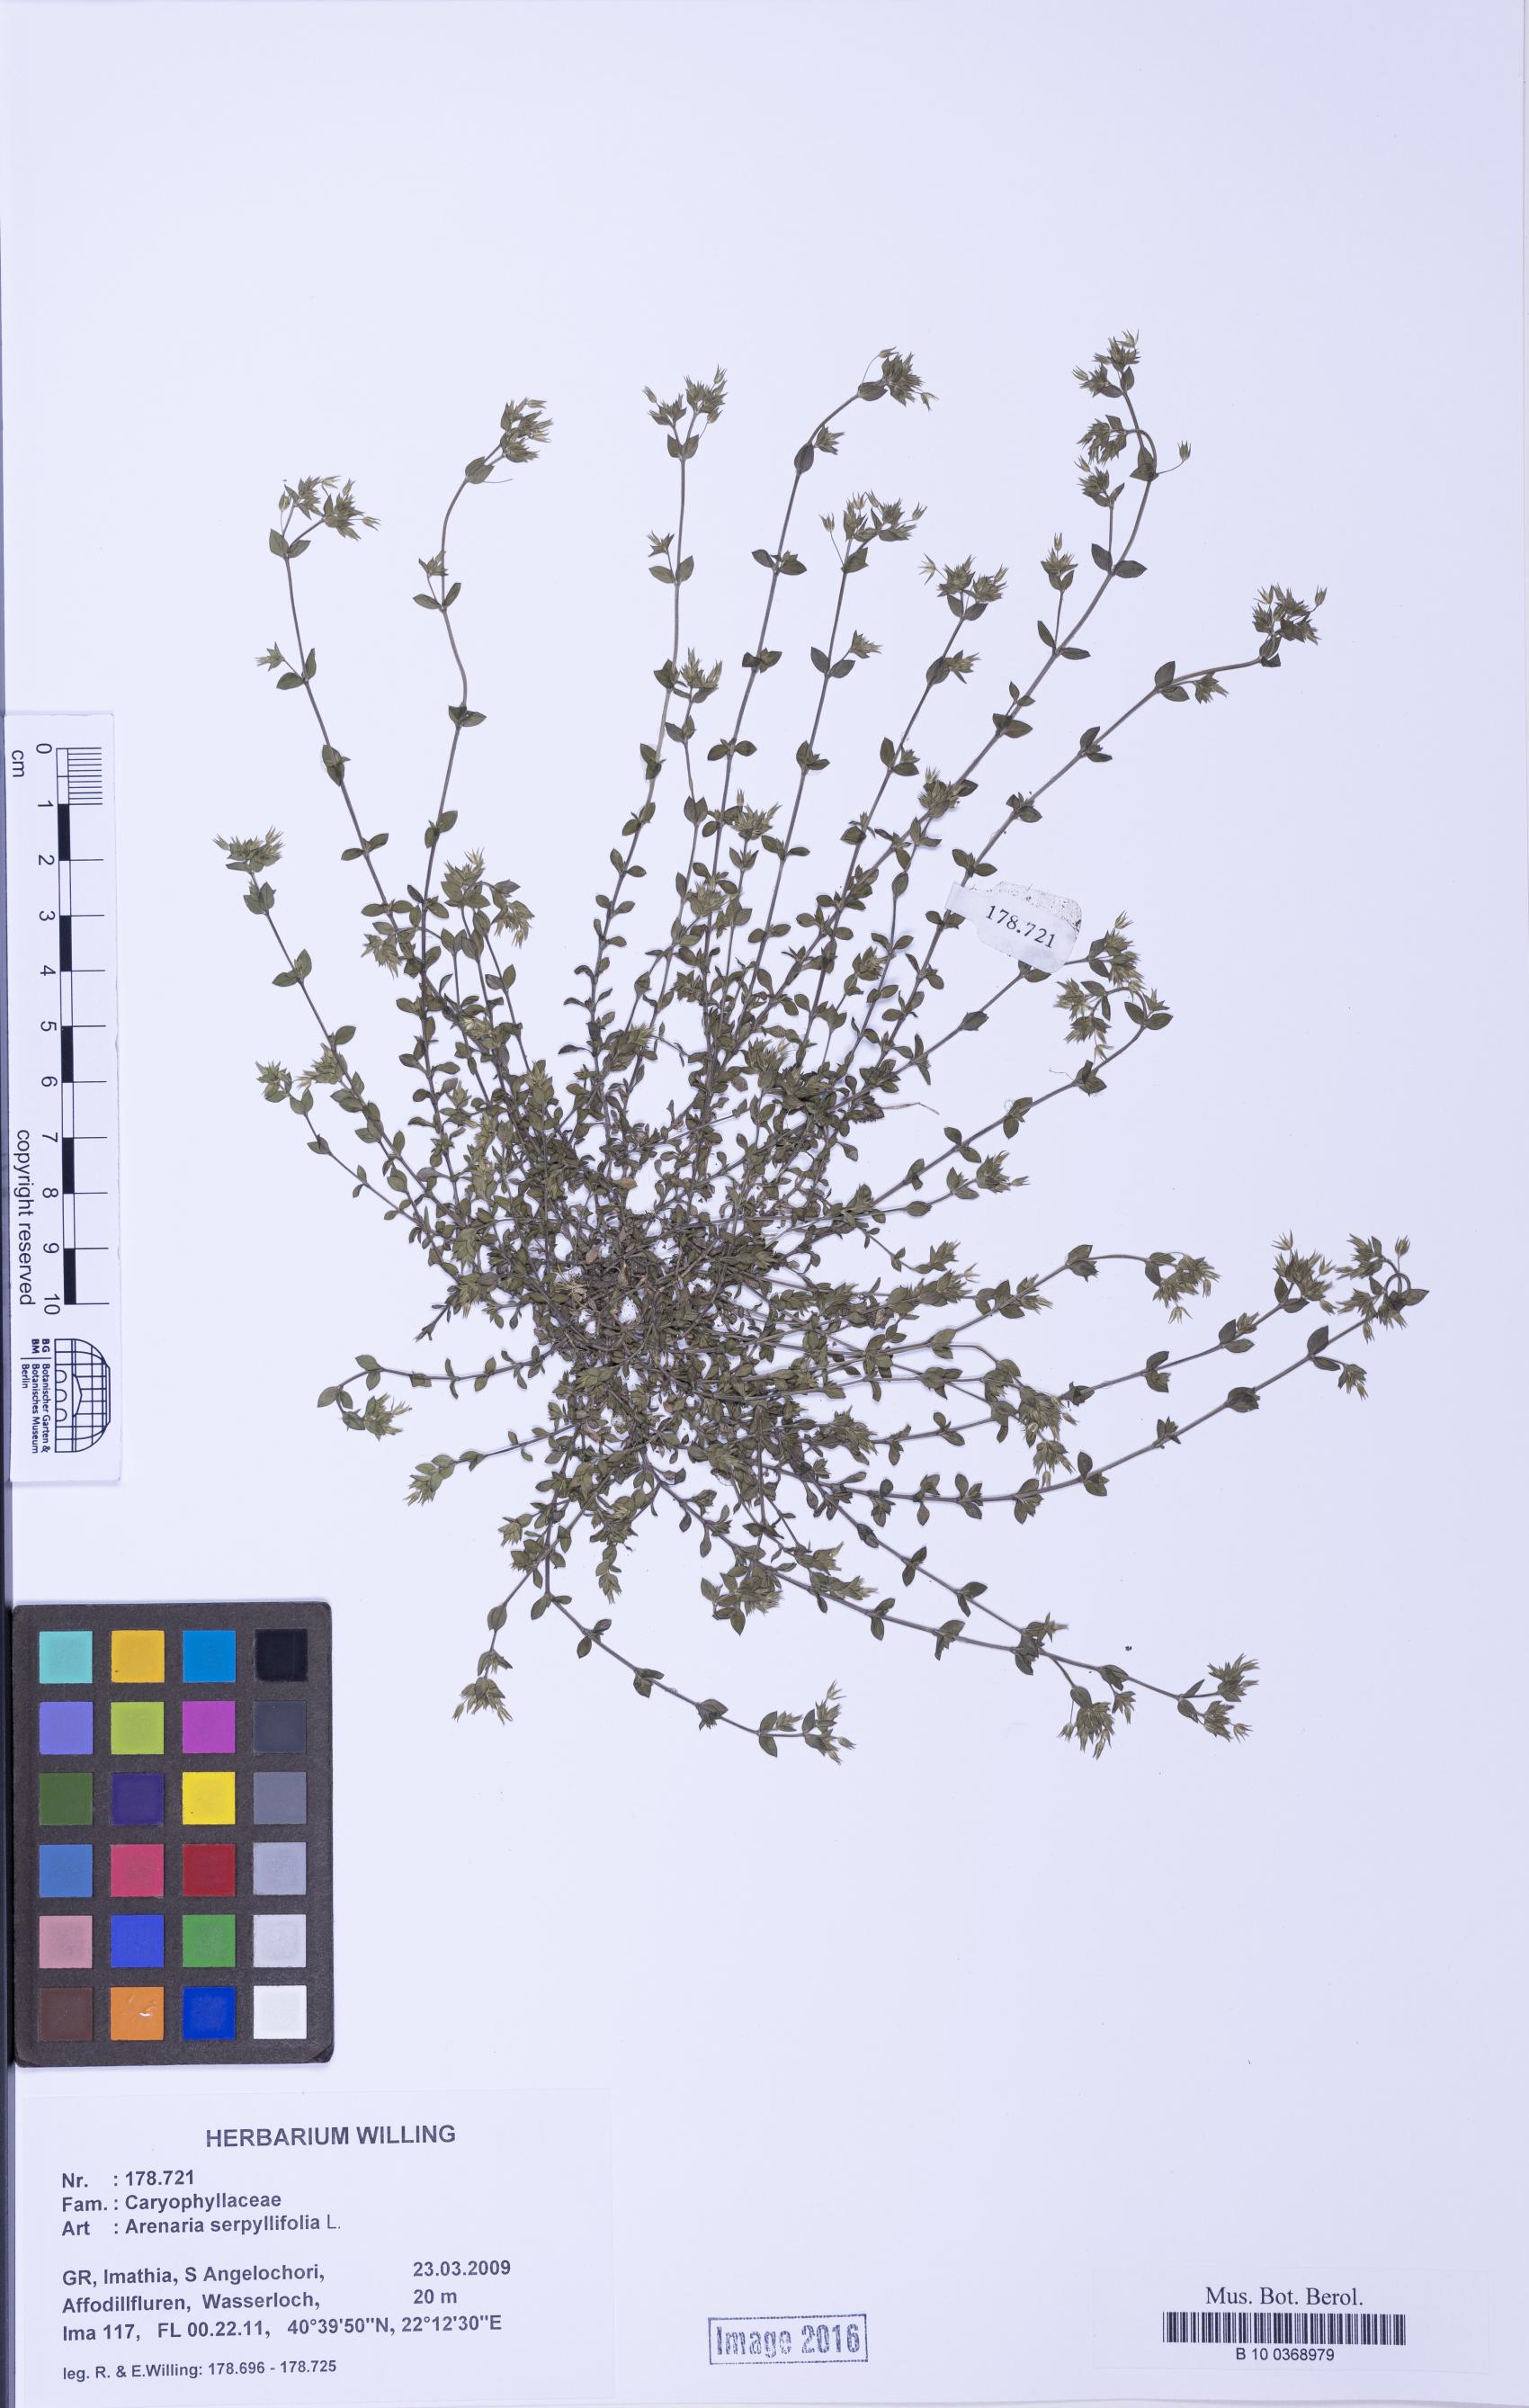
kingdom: Plantae
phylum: Tracheophyta
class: Magnoliopsida
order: Caryophyllales
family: Caryophyllaceae
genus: Arenaria
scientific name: Arenaria serpyllifolia
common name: Thyme-leaved sandwort
